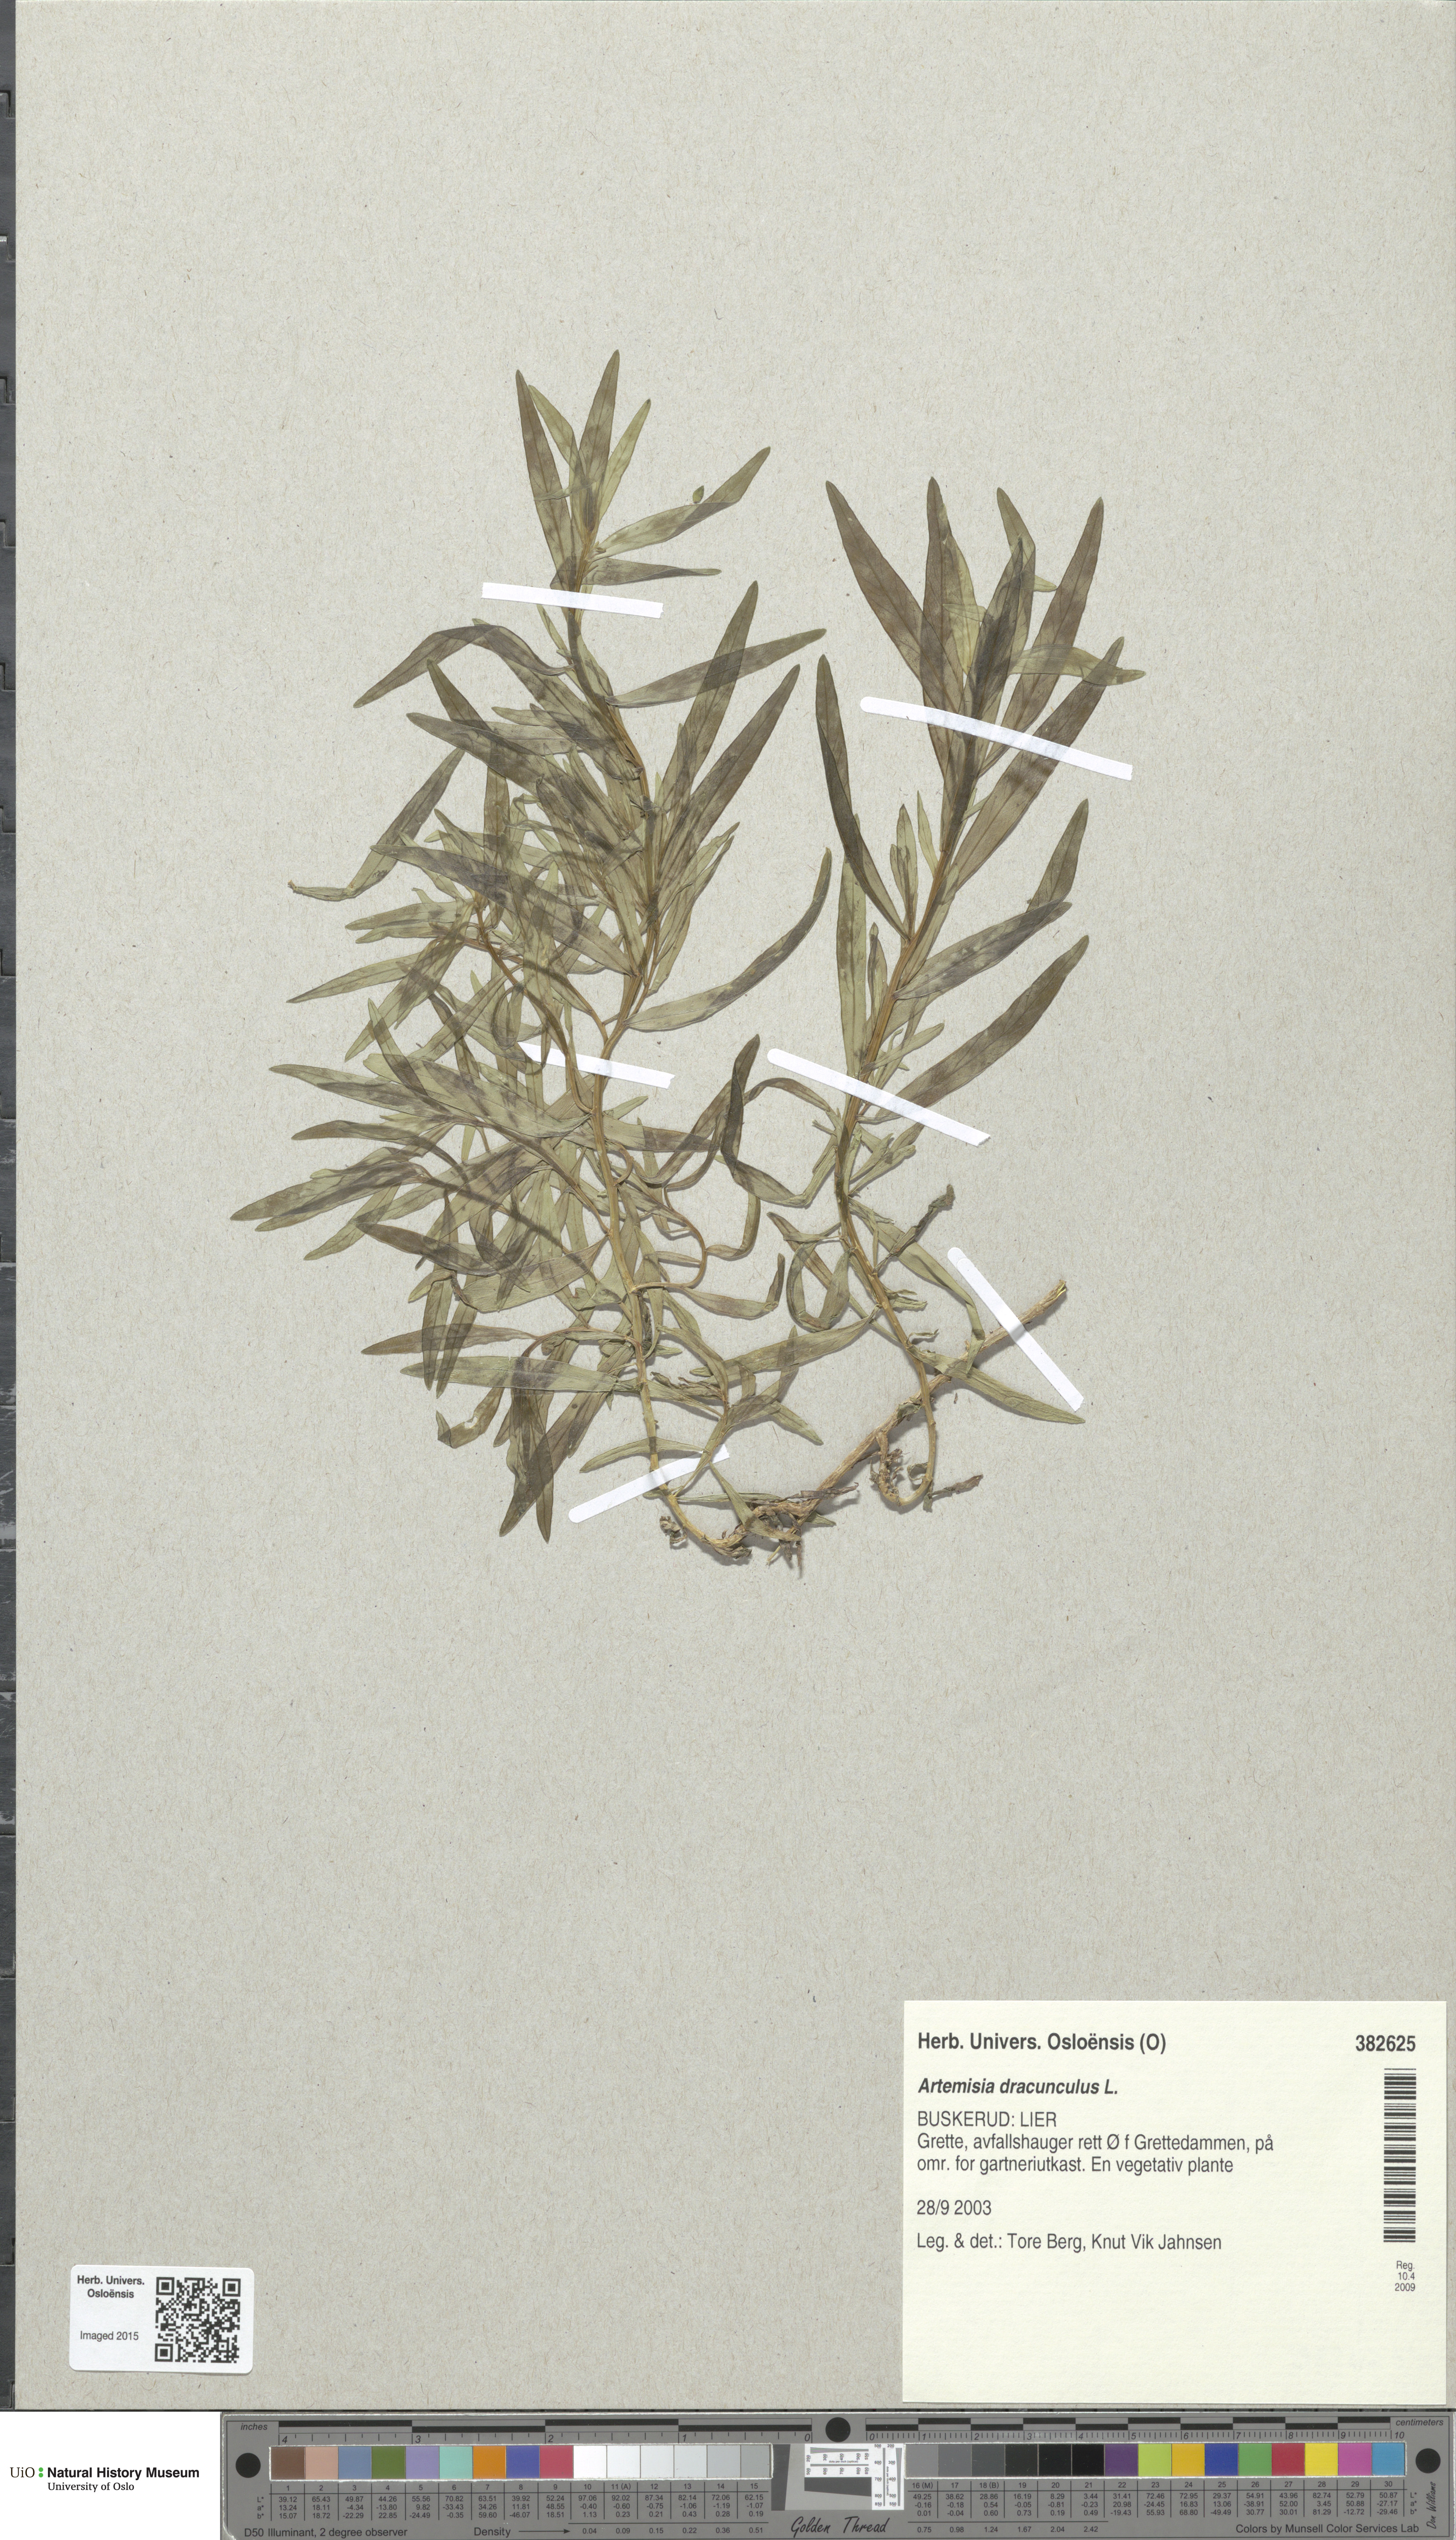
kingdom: Plantae
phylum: Tracheophyta
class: Magnoliopsida
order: Asterales
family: Asteraceae
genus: Artemisia
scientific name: Artemisia dracunculus
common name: Tarragon
